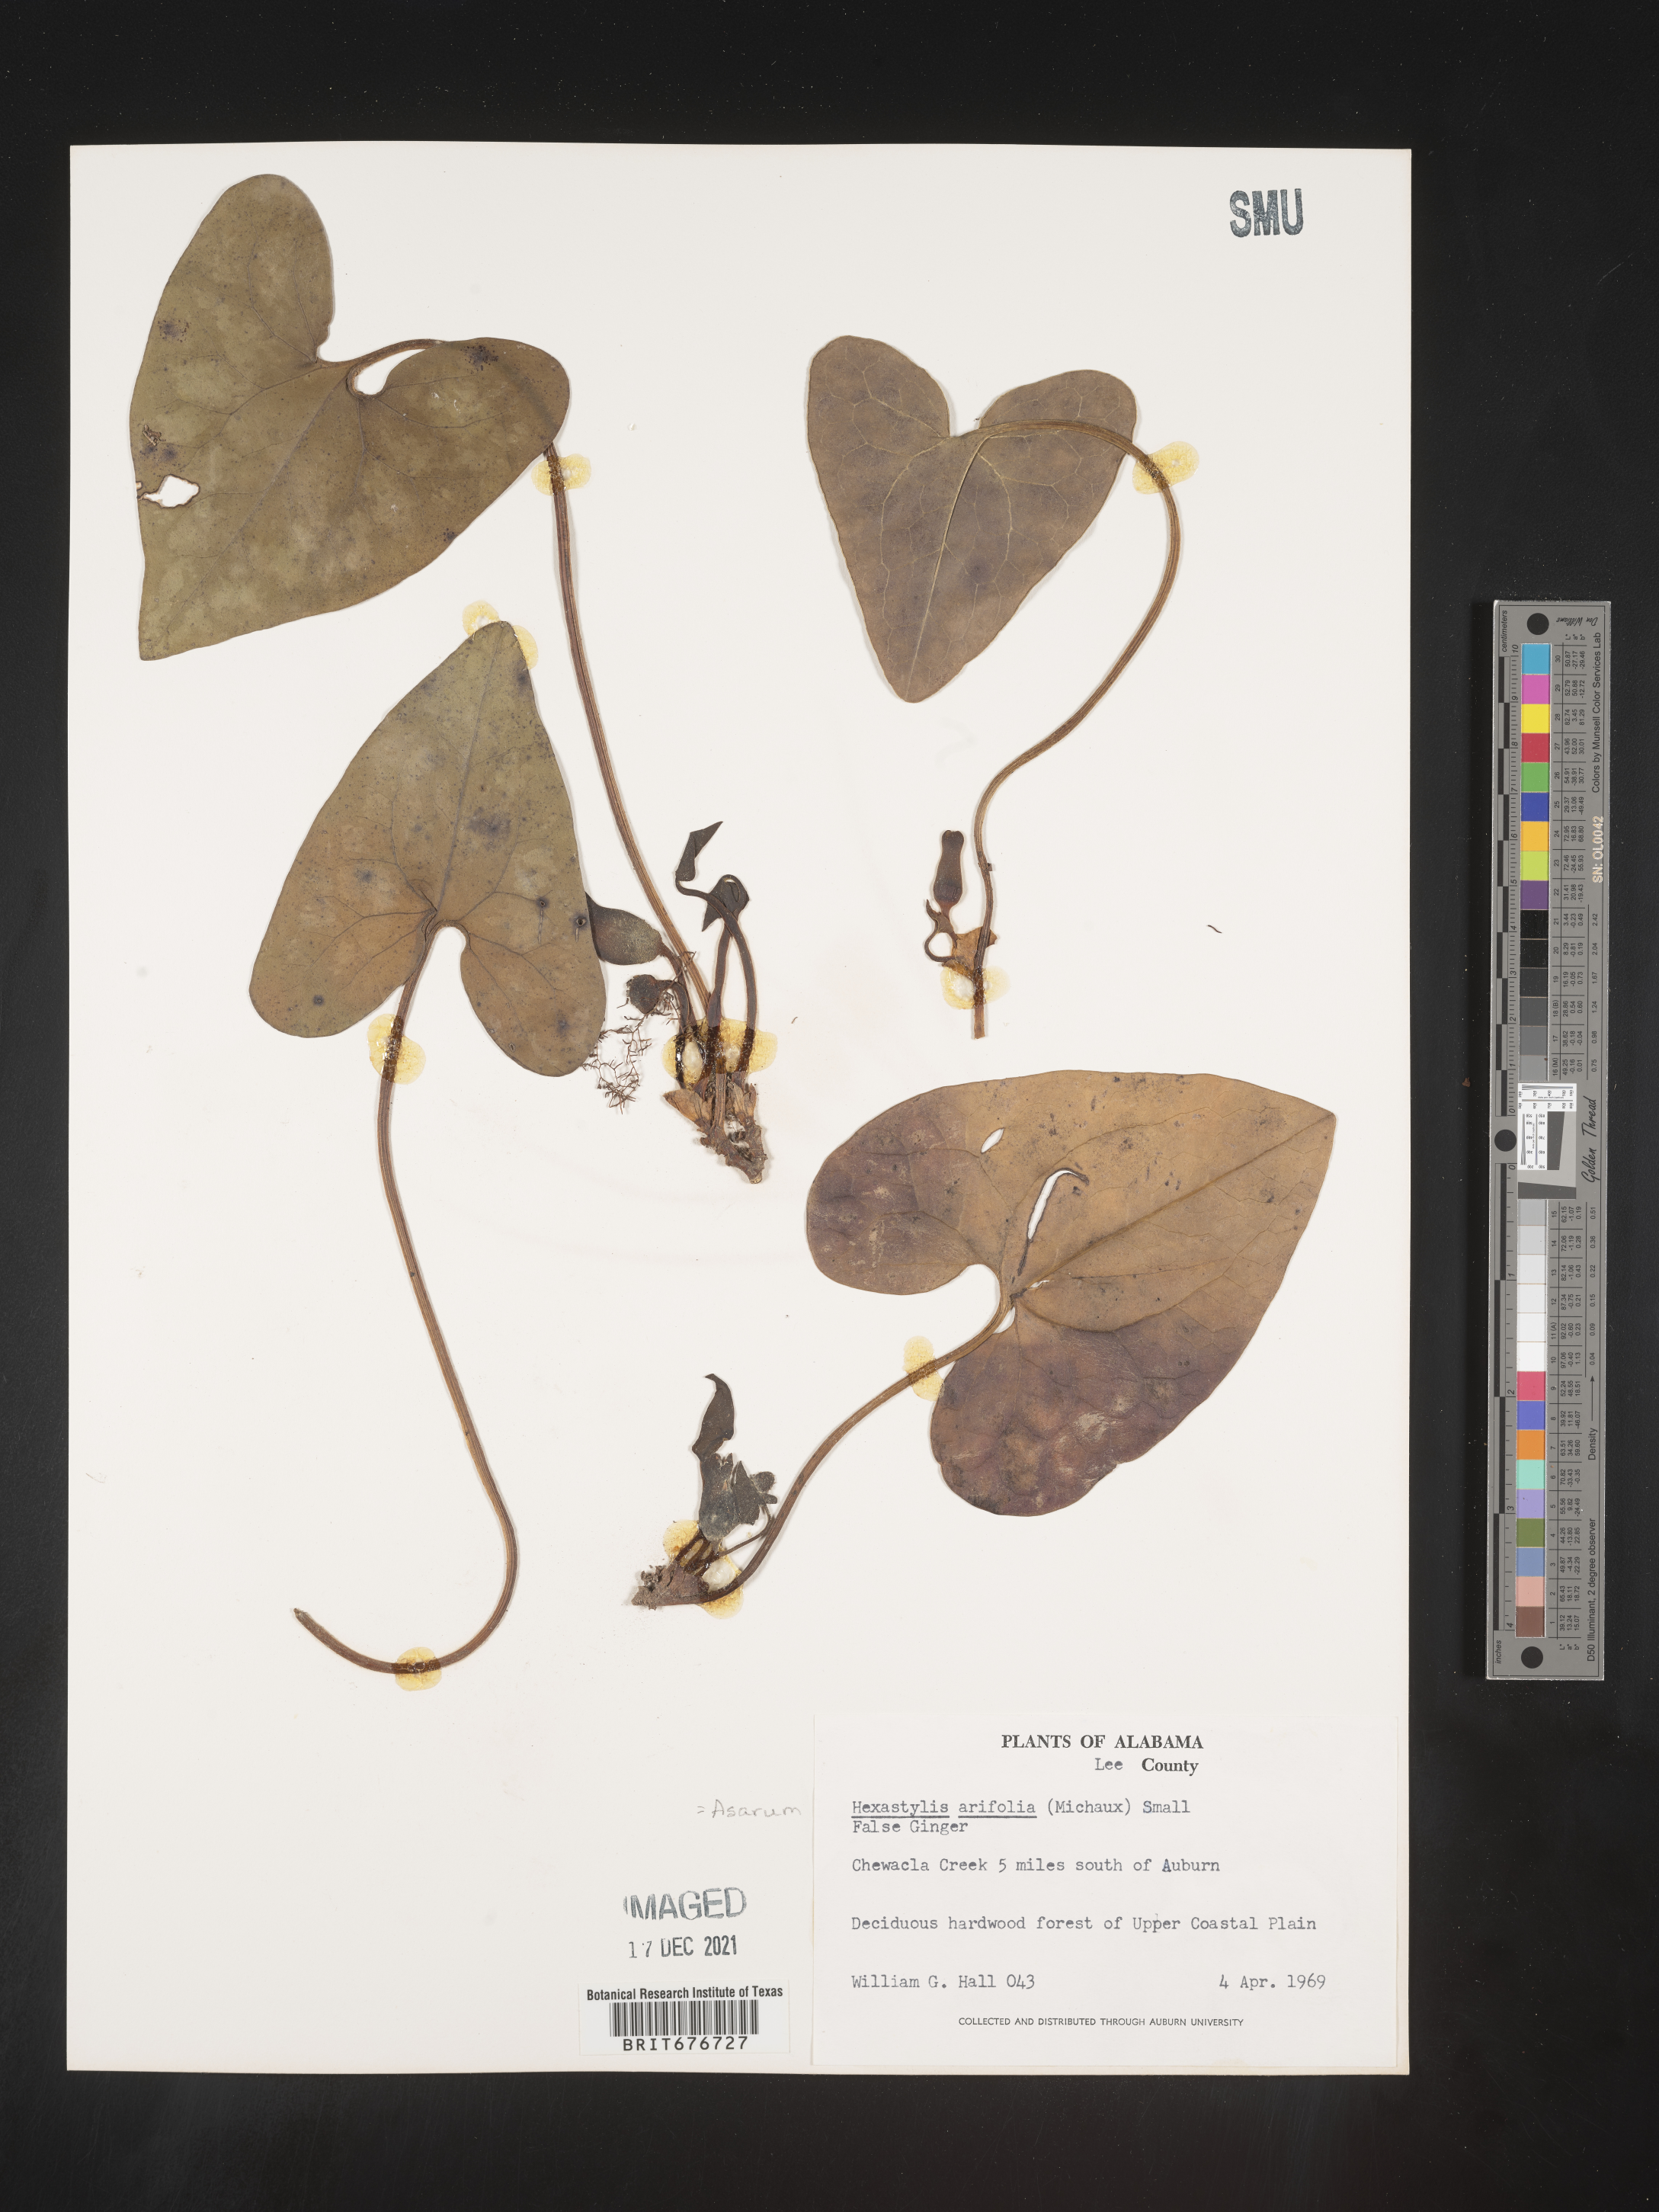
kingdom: Plantae
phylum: Tracheophyta
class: Magnoliopsida
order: Piperales
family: Aristolochiaceae
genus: Hexastylis
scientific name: Hexastylis arifolia
